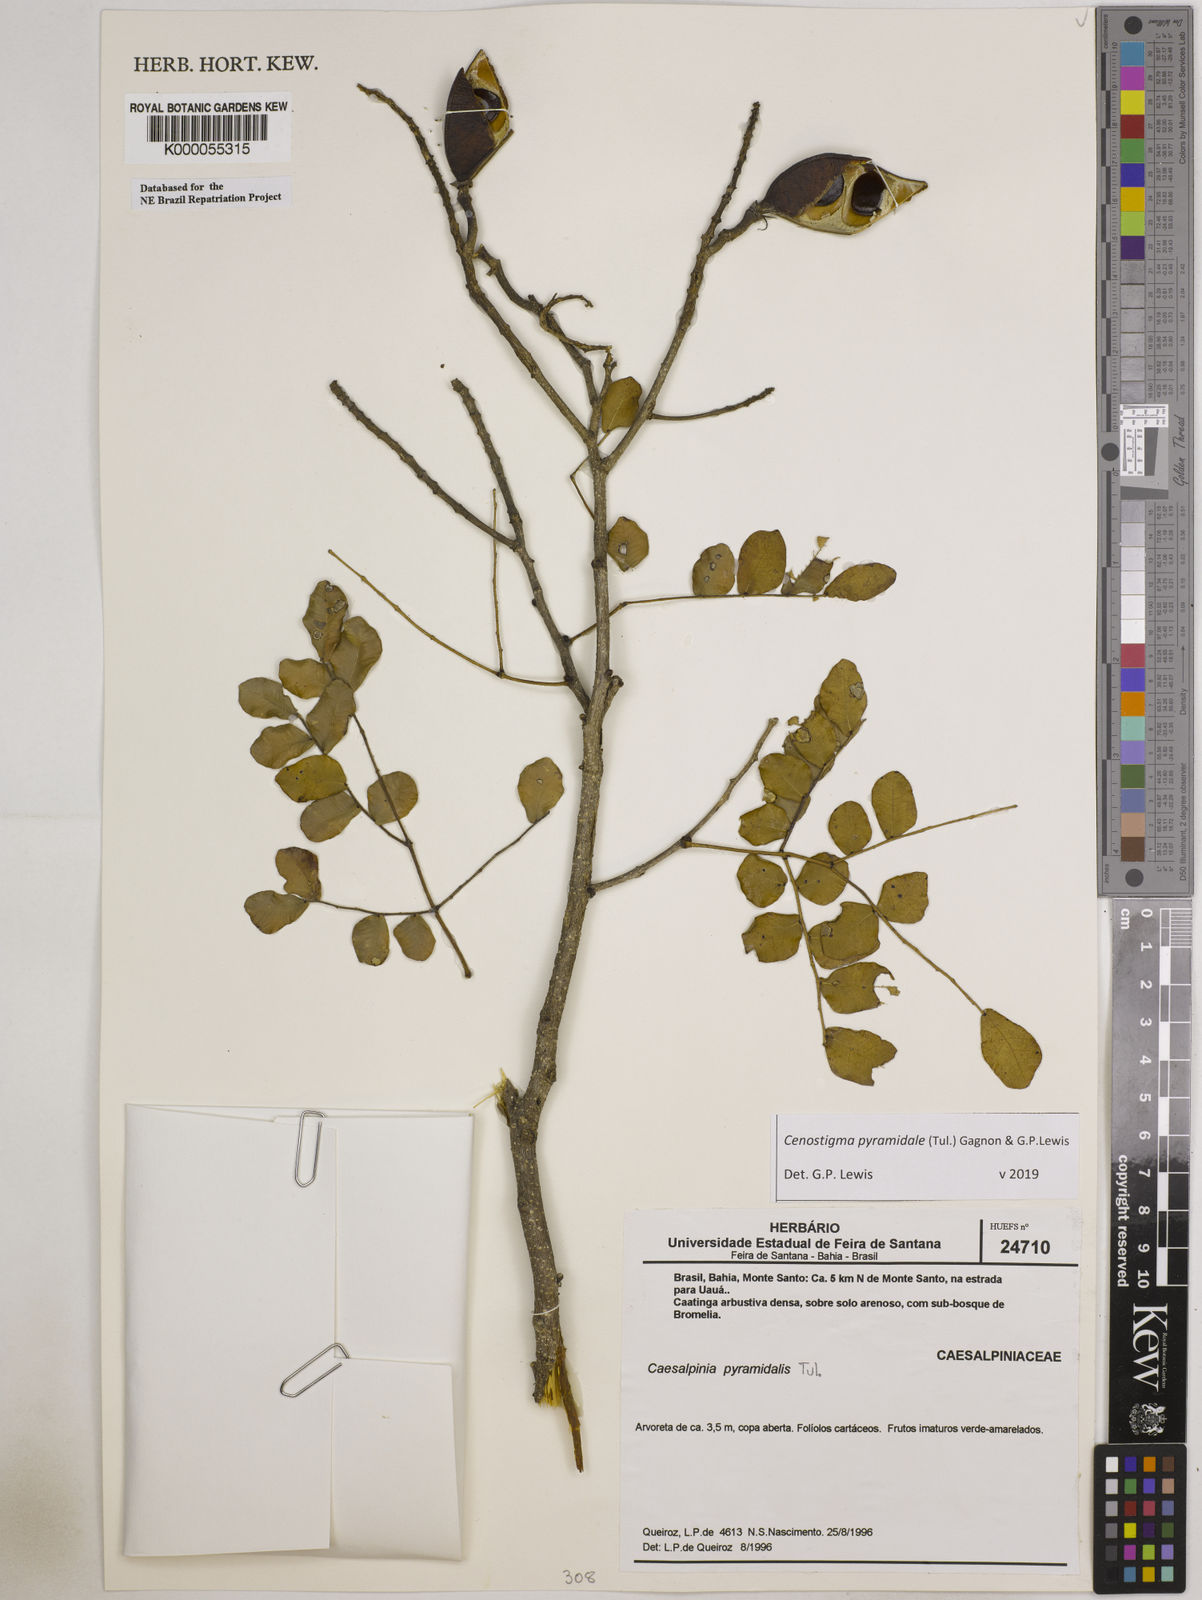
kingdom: Plantae
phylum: Tracheophyta
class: Magnoliopsida
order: Fabales
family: Fabaceae
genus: Cenostigma
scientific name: Cenostigma pyramidale
